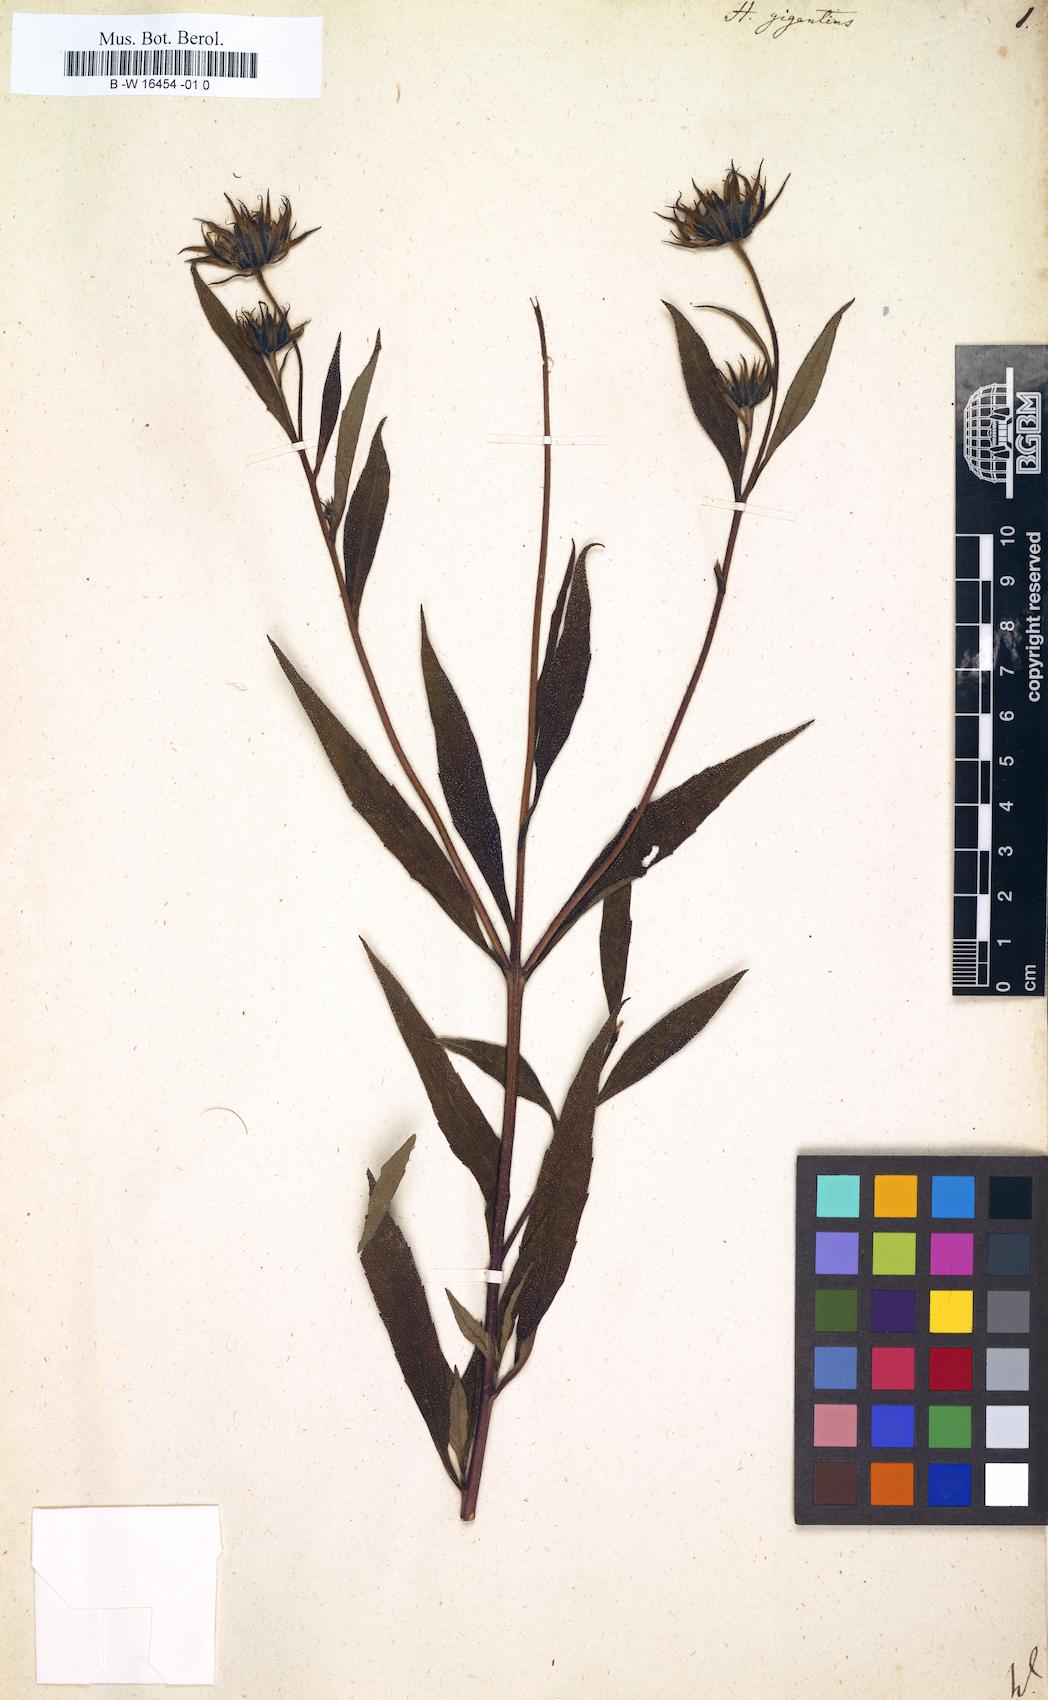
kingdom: Plantae
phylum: Tracheophyta
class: Magnoliopsida
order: Asterales
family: Asteraceae
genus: Helianthus
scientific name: Helianthus giganteus
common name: Giant sunflower
